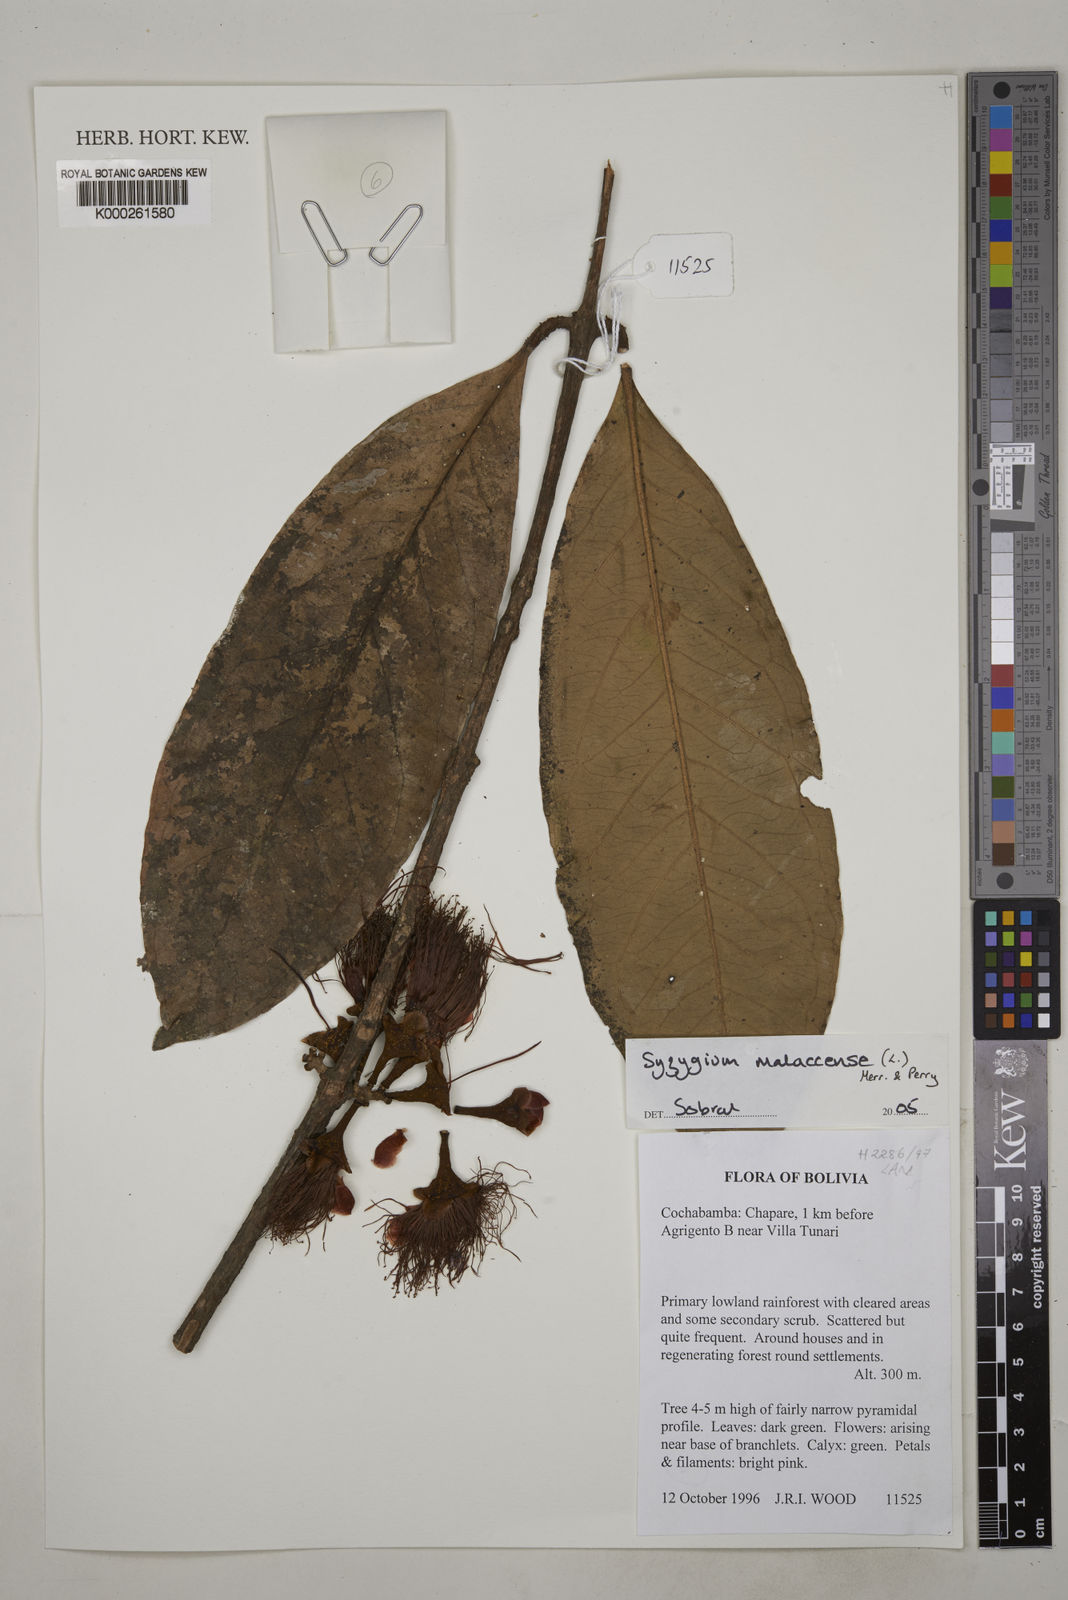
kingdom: Plantae
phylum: Tracheophyta
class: Magnoliopsida
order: Myrtales
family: Myrtaceae
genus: Syzygium
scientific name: Syzygium malaccense
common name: Malaysian apple
